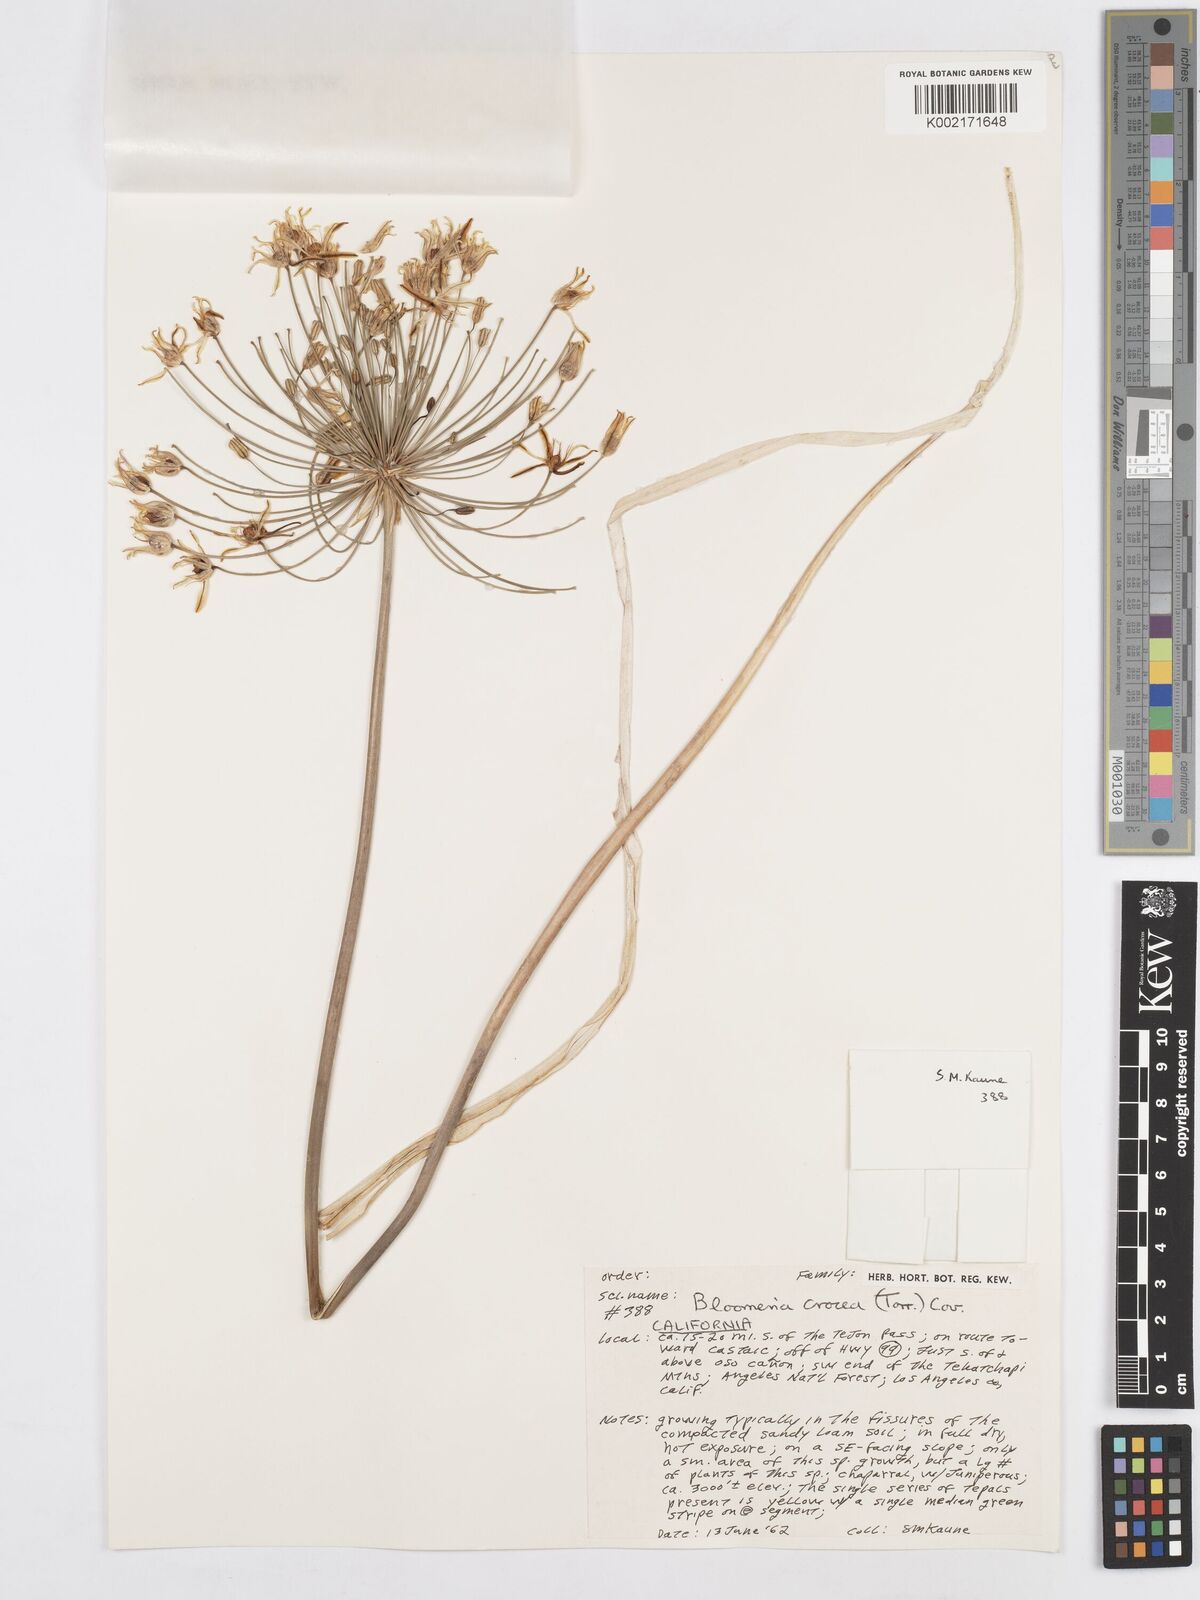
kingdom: Plantae
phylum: Tracheophyta
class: Liliopsida
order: Asparagales
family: Asparagaceae
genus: Bloomeria
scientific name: Bloomeria crocea
